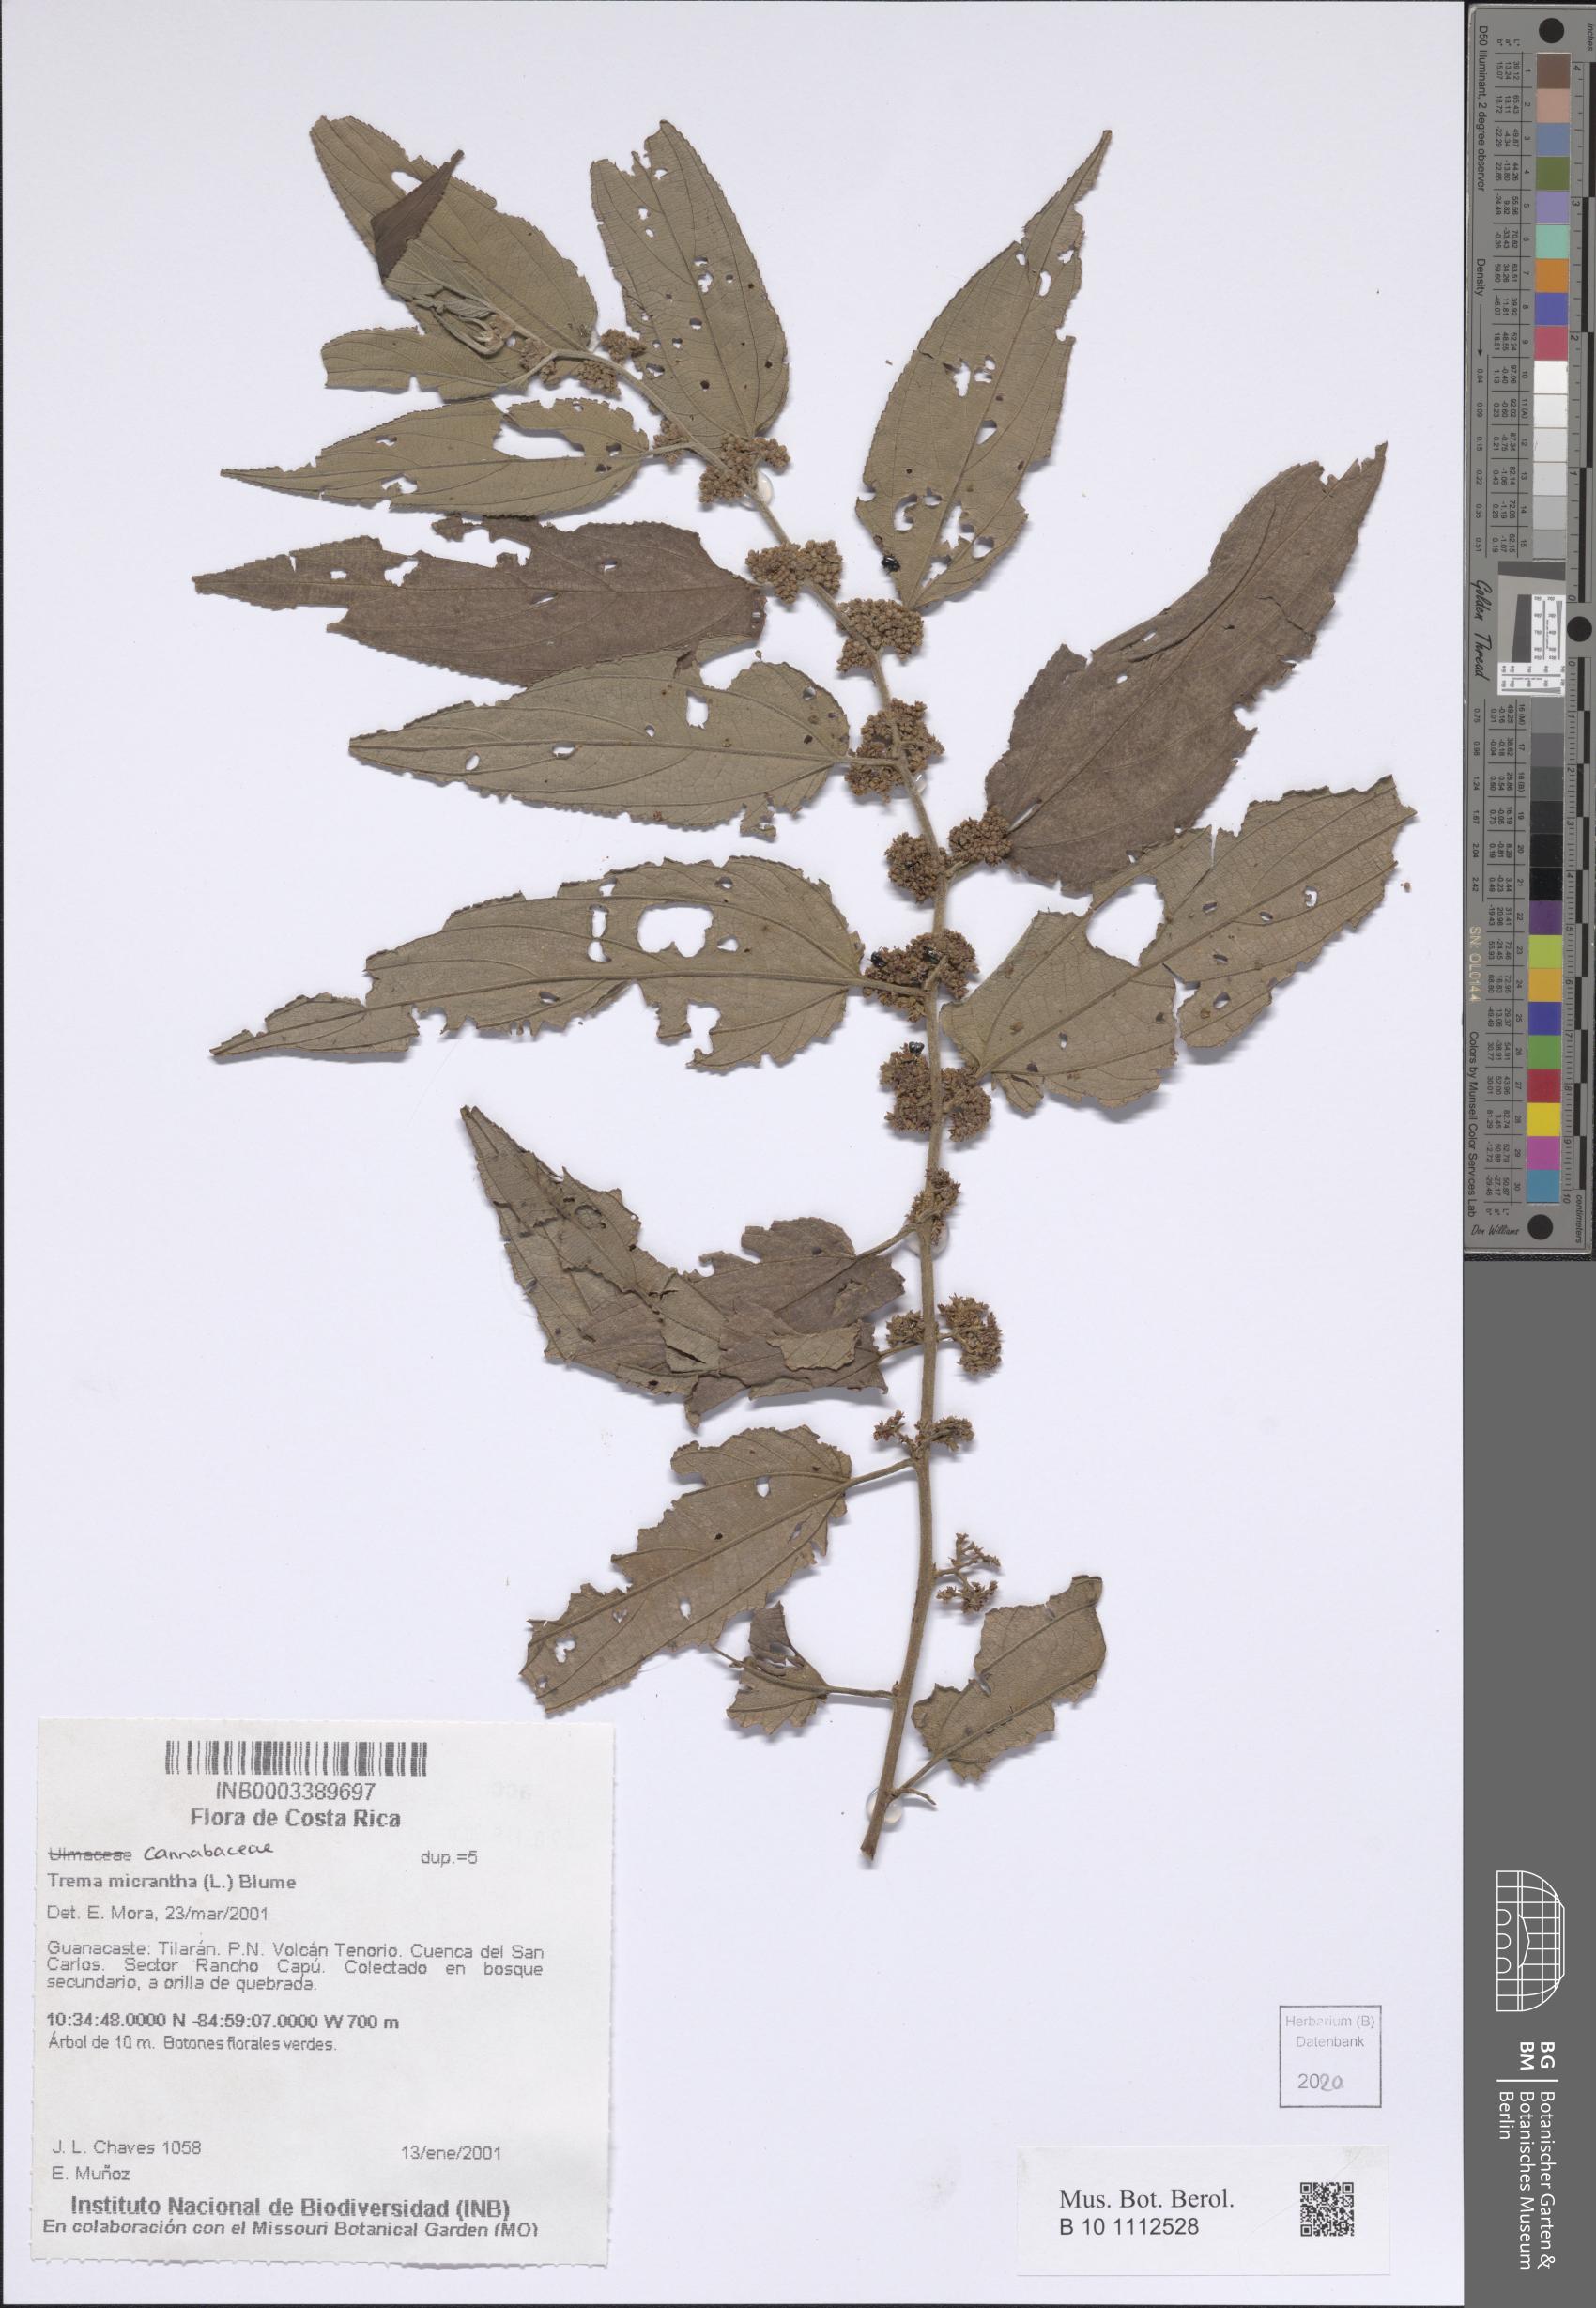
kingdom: Plantae
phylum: Tracheophyta
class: Magnoliopsida
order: Rosales
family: Cannabaceae
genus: Trema
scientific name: Trema micranthum
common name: Jamaican nettletree
